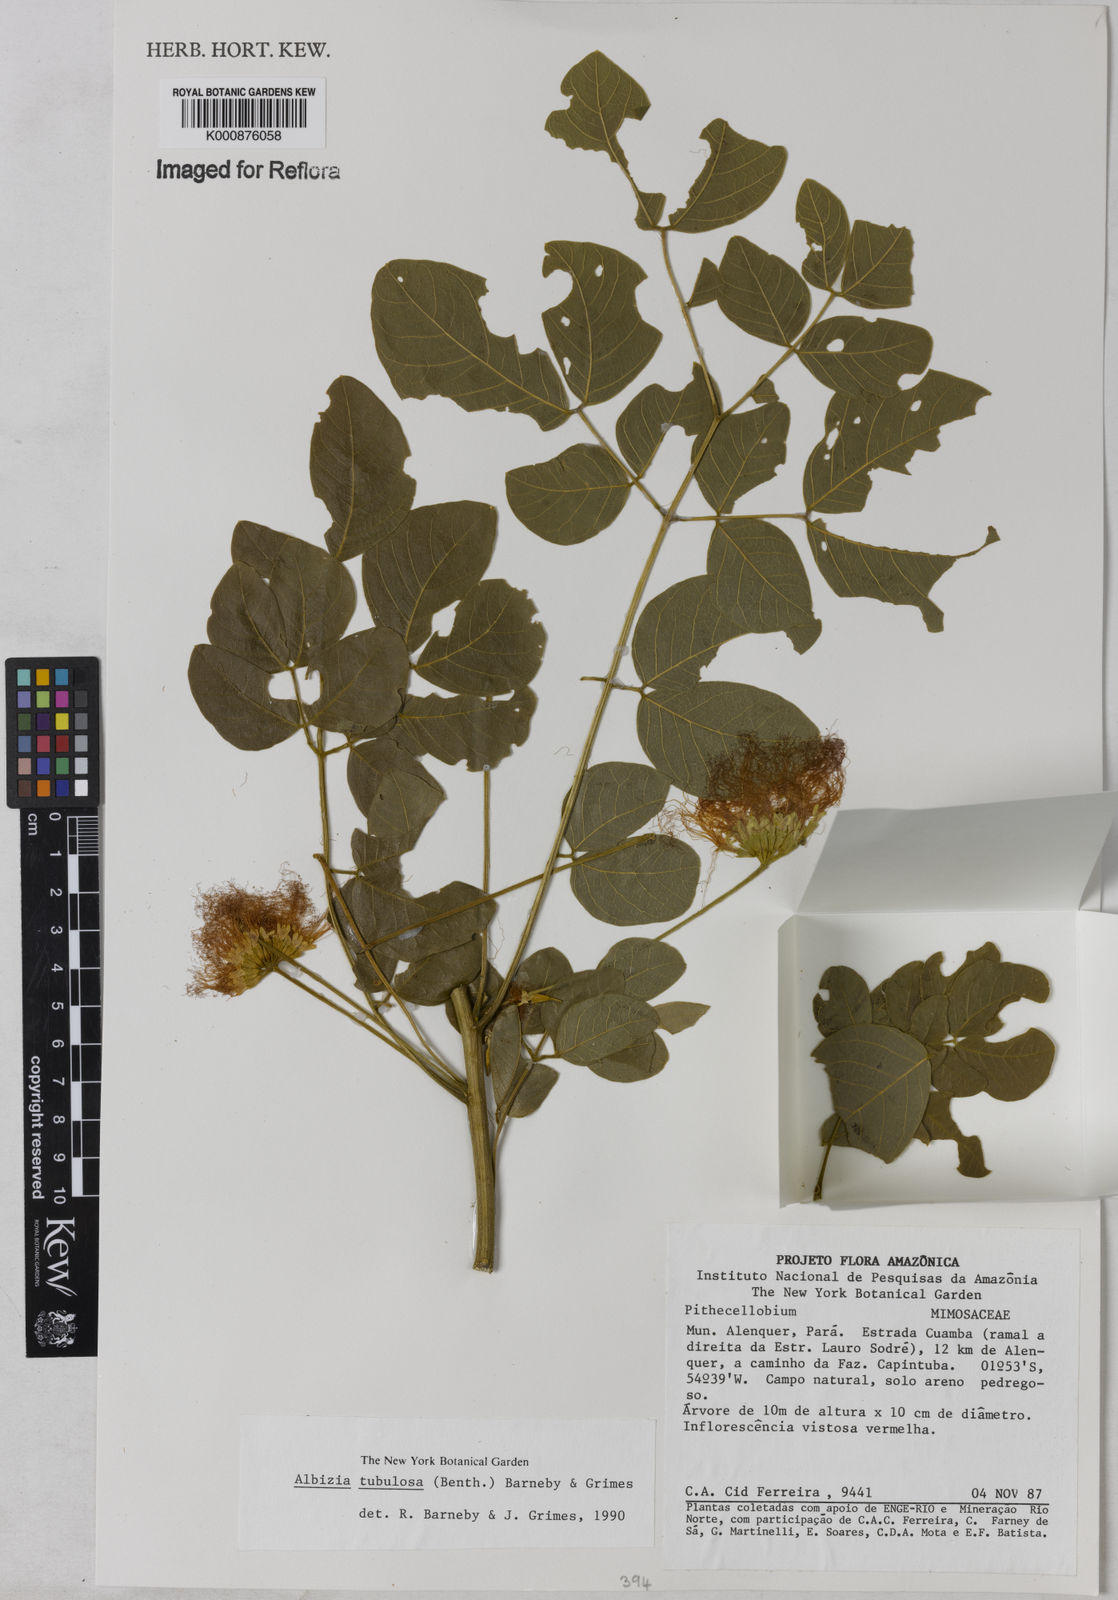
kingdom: Plantae
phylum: Tracheophyta
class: Magnoliopsida
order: Fabales
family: Fabaceae
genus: Samanea
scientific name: Samanea tubulosa
